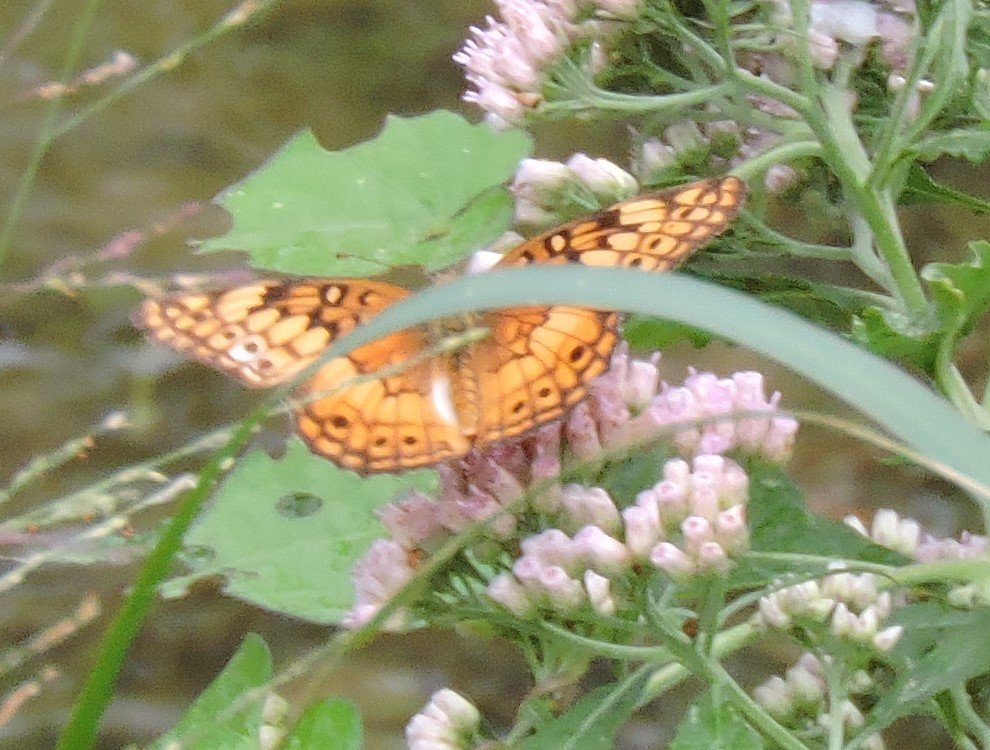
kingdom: Animalia
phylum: Arthropoda
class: Insecta
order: Lepidoptera
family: Nymphalidae
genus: Euptoieta
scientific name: Euptoieta claudia
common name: Variegated Fritillary
